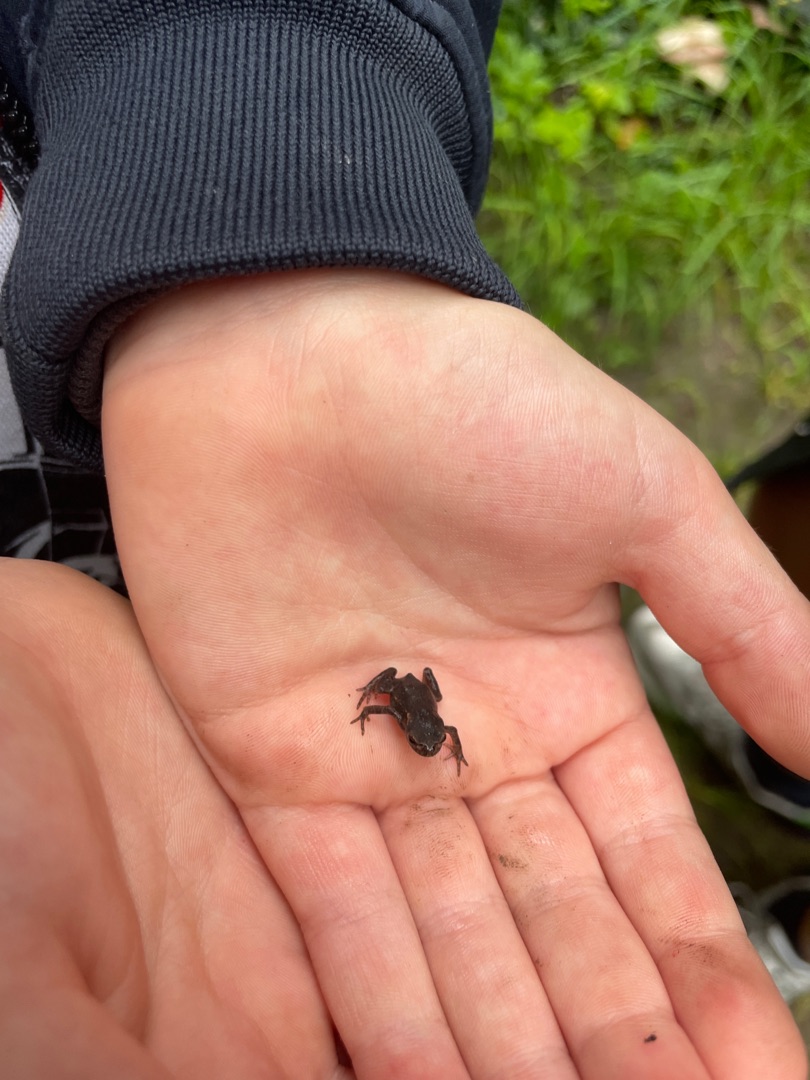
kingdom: Animalia
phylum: Chordata
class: Amphibia
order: Anura
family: Bufonidae
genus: Bufo
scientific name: Bufo bufo
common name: Skrubtudse
